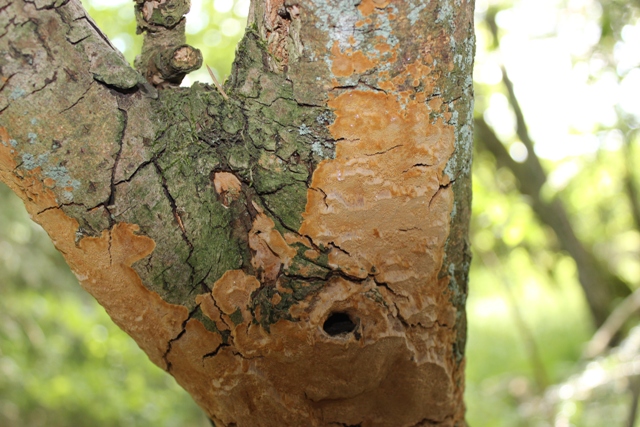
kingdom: Fungi
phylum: Basidiomycota
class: Agaricomycetes
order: Hymenochaetales
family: Hymenochaetaceae
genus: Fuscoporia
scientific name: Fuscoporia ferrea
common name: skorpe-ildporesvamp
